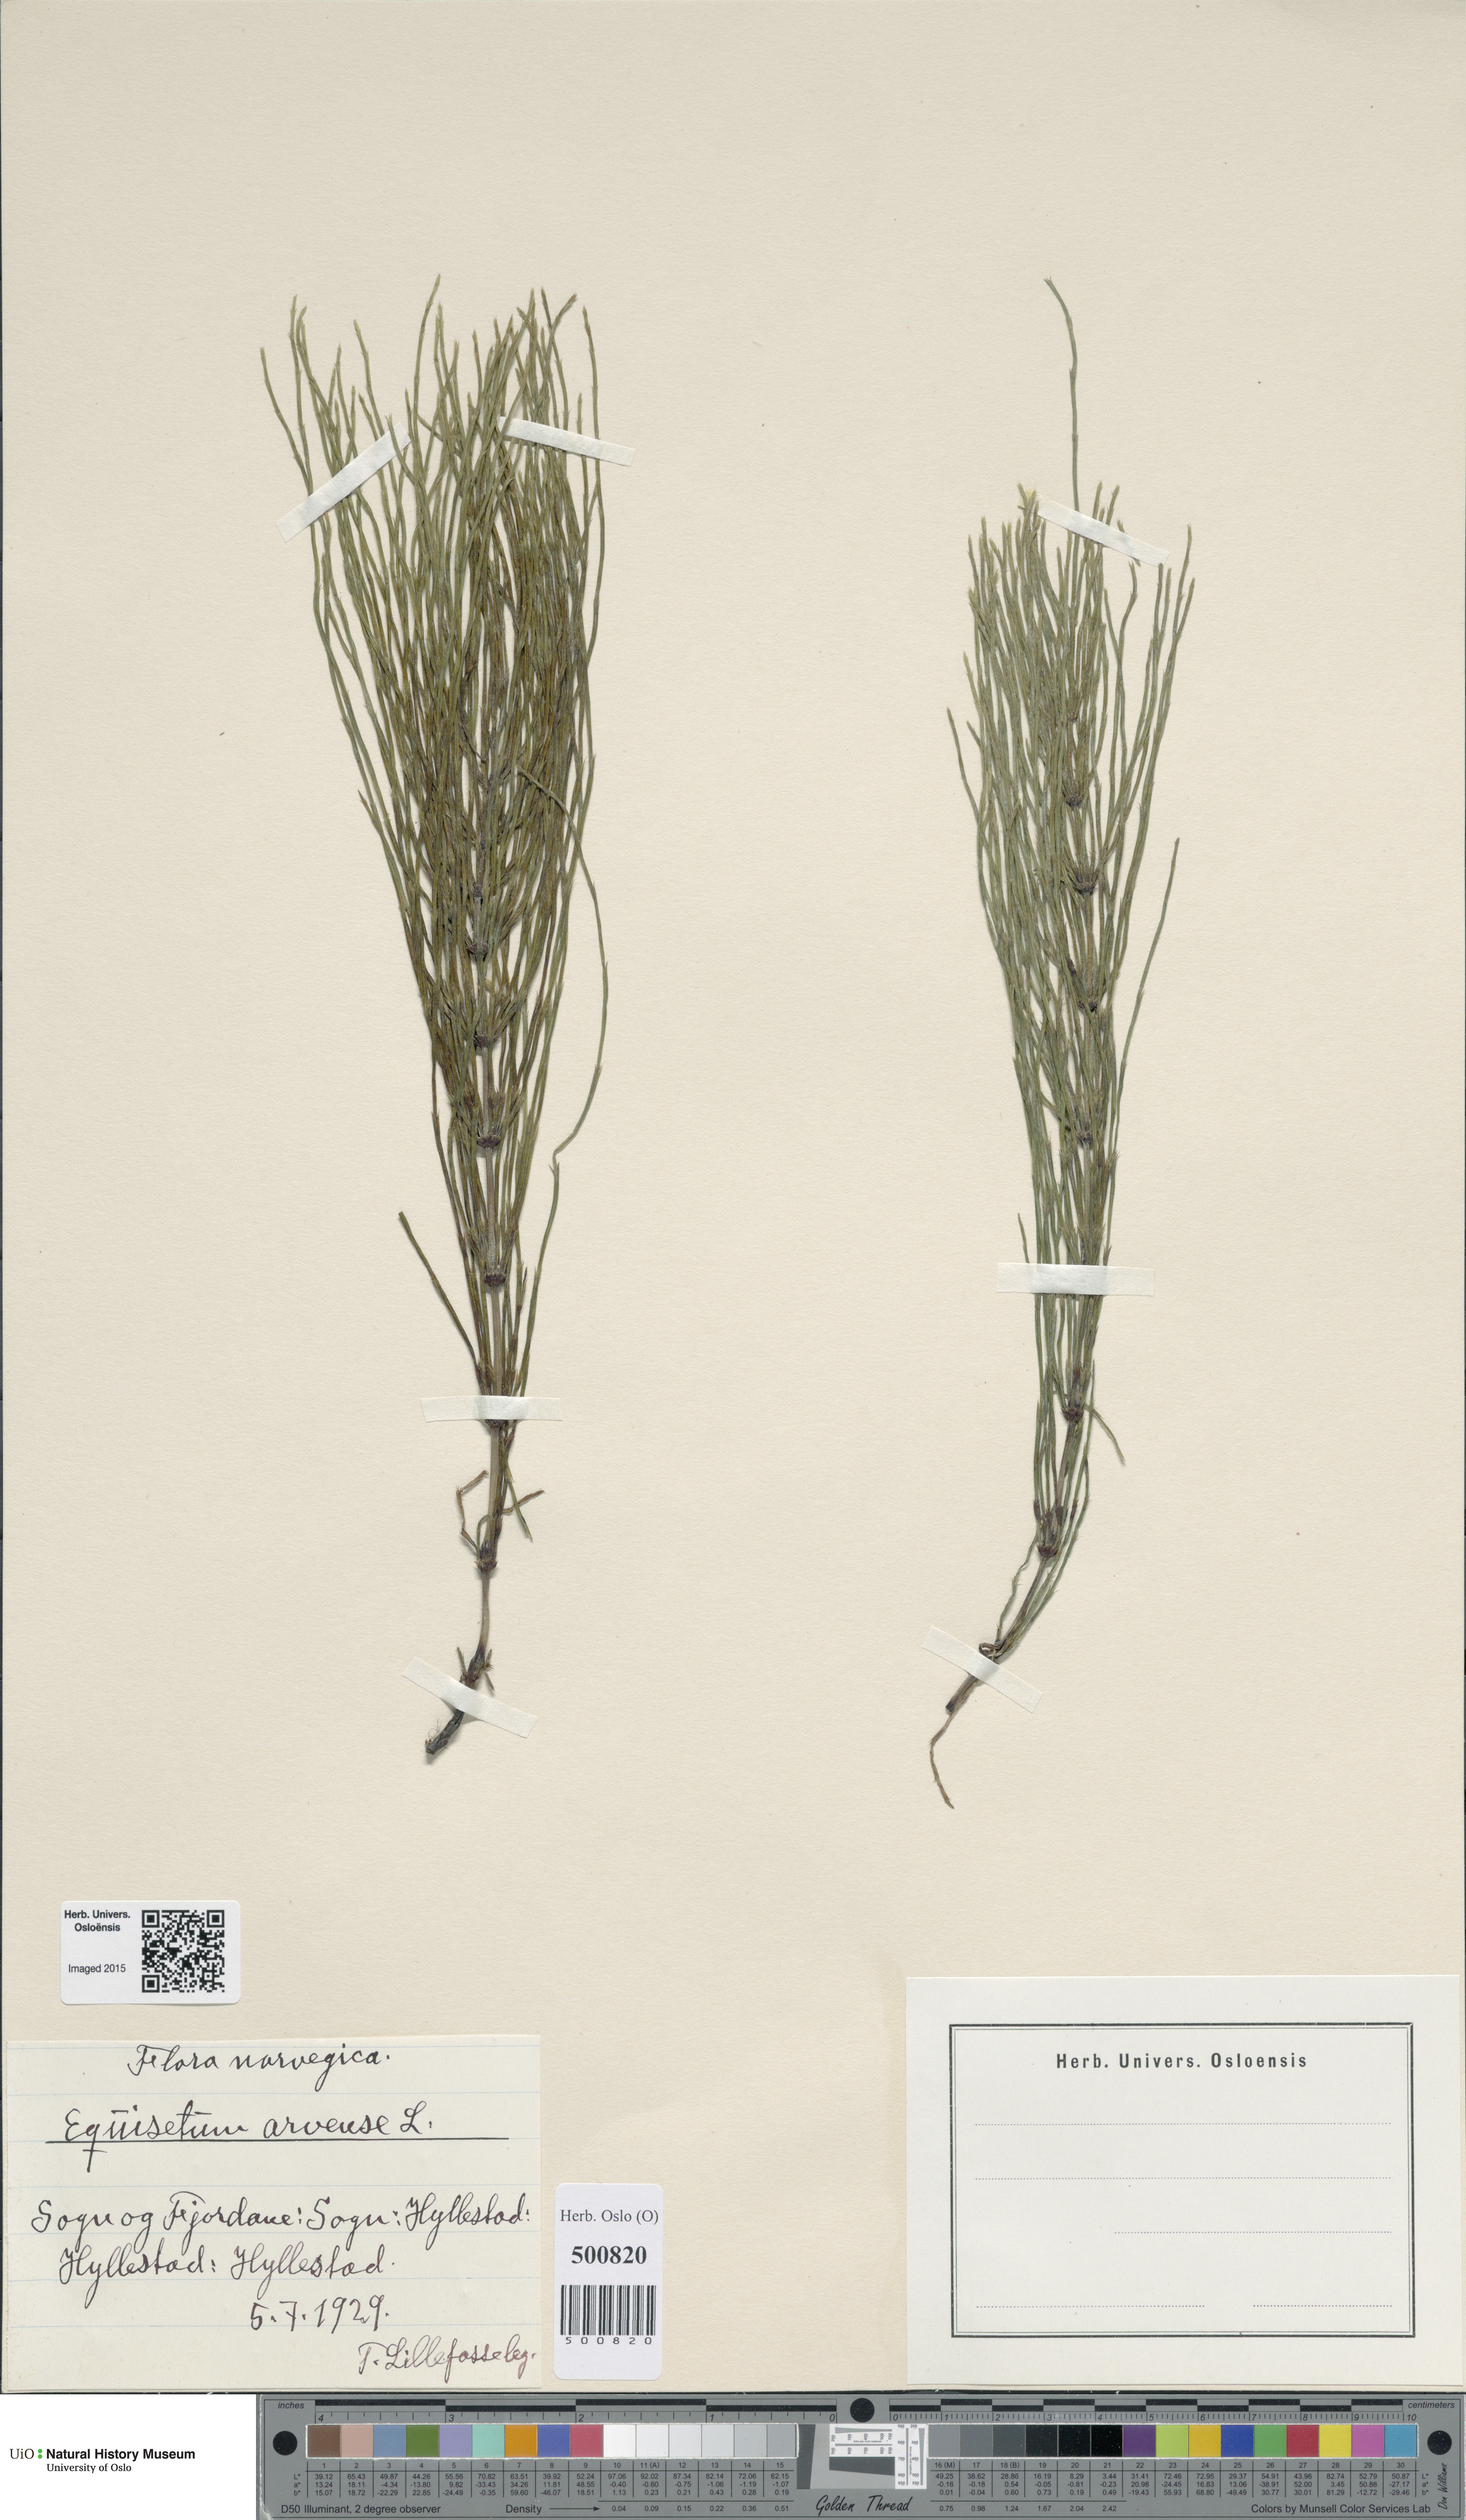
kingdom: Plantae
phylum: Tracheophyta
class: Polypodiopsida
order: Equisetales
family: Equisetaceae
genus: Equisetum
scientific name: Equisetum arvense
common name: Field horsetail
